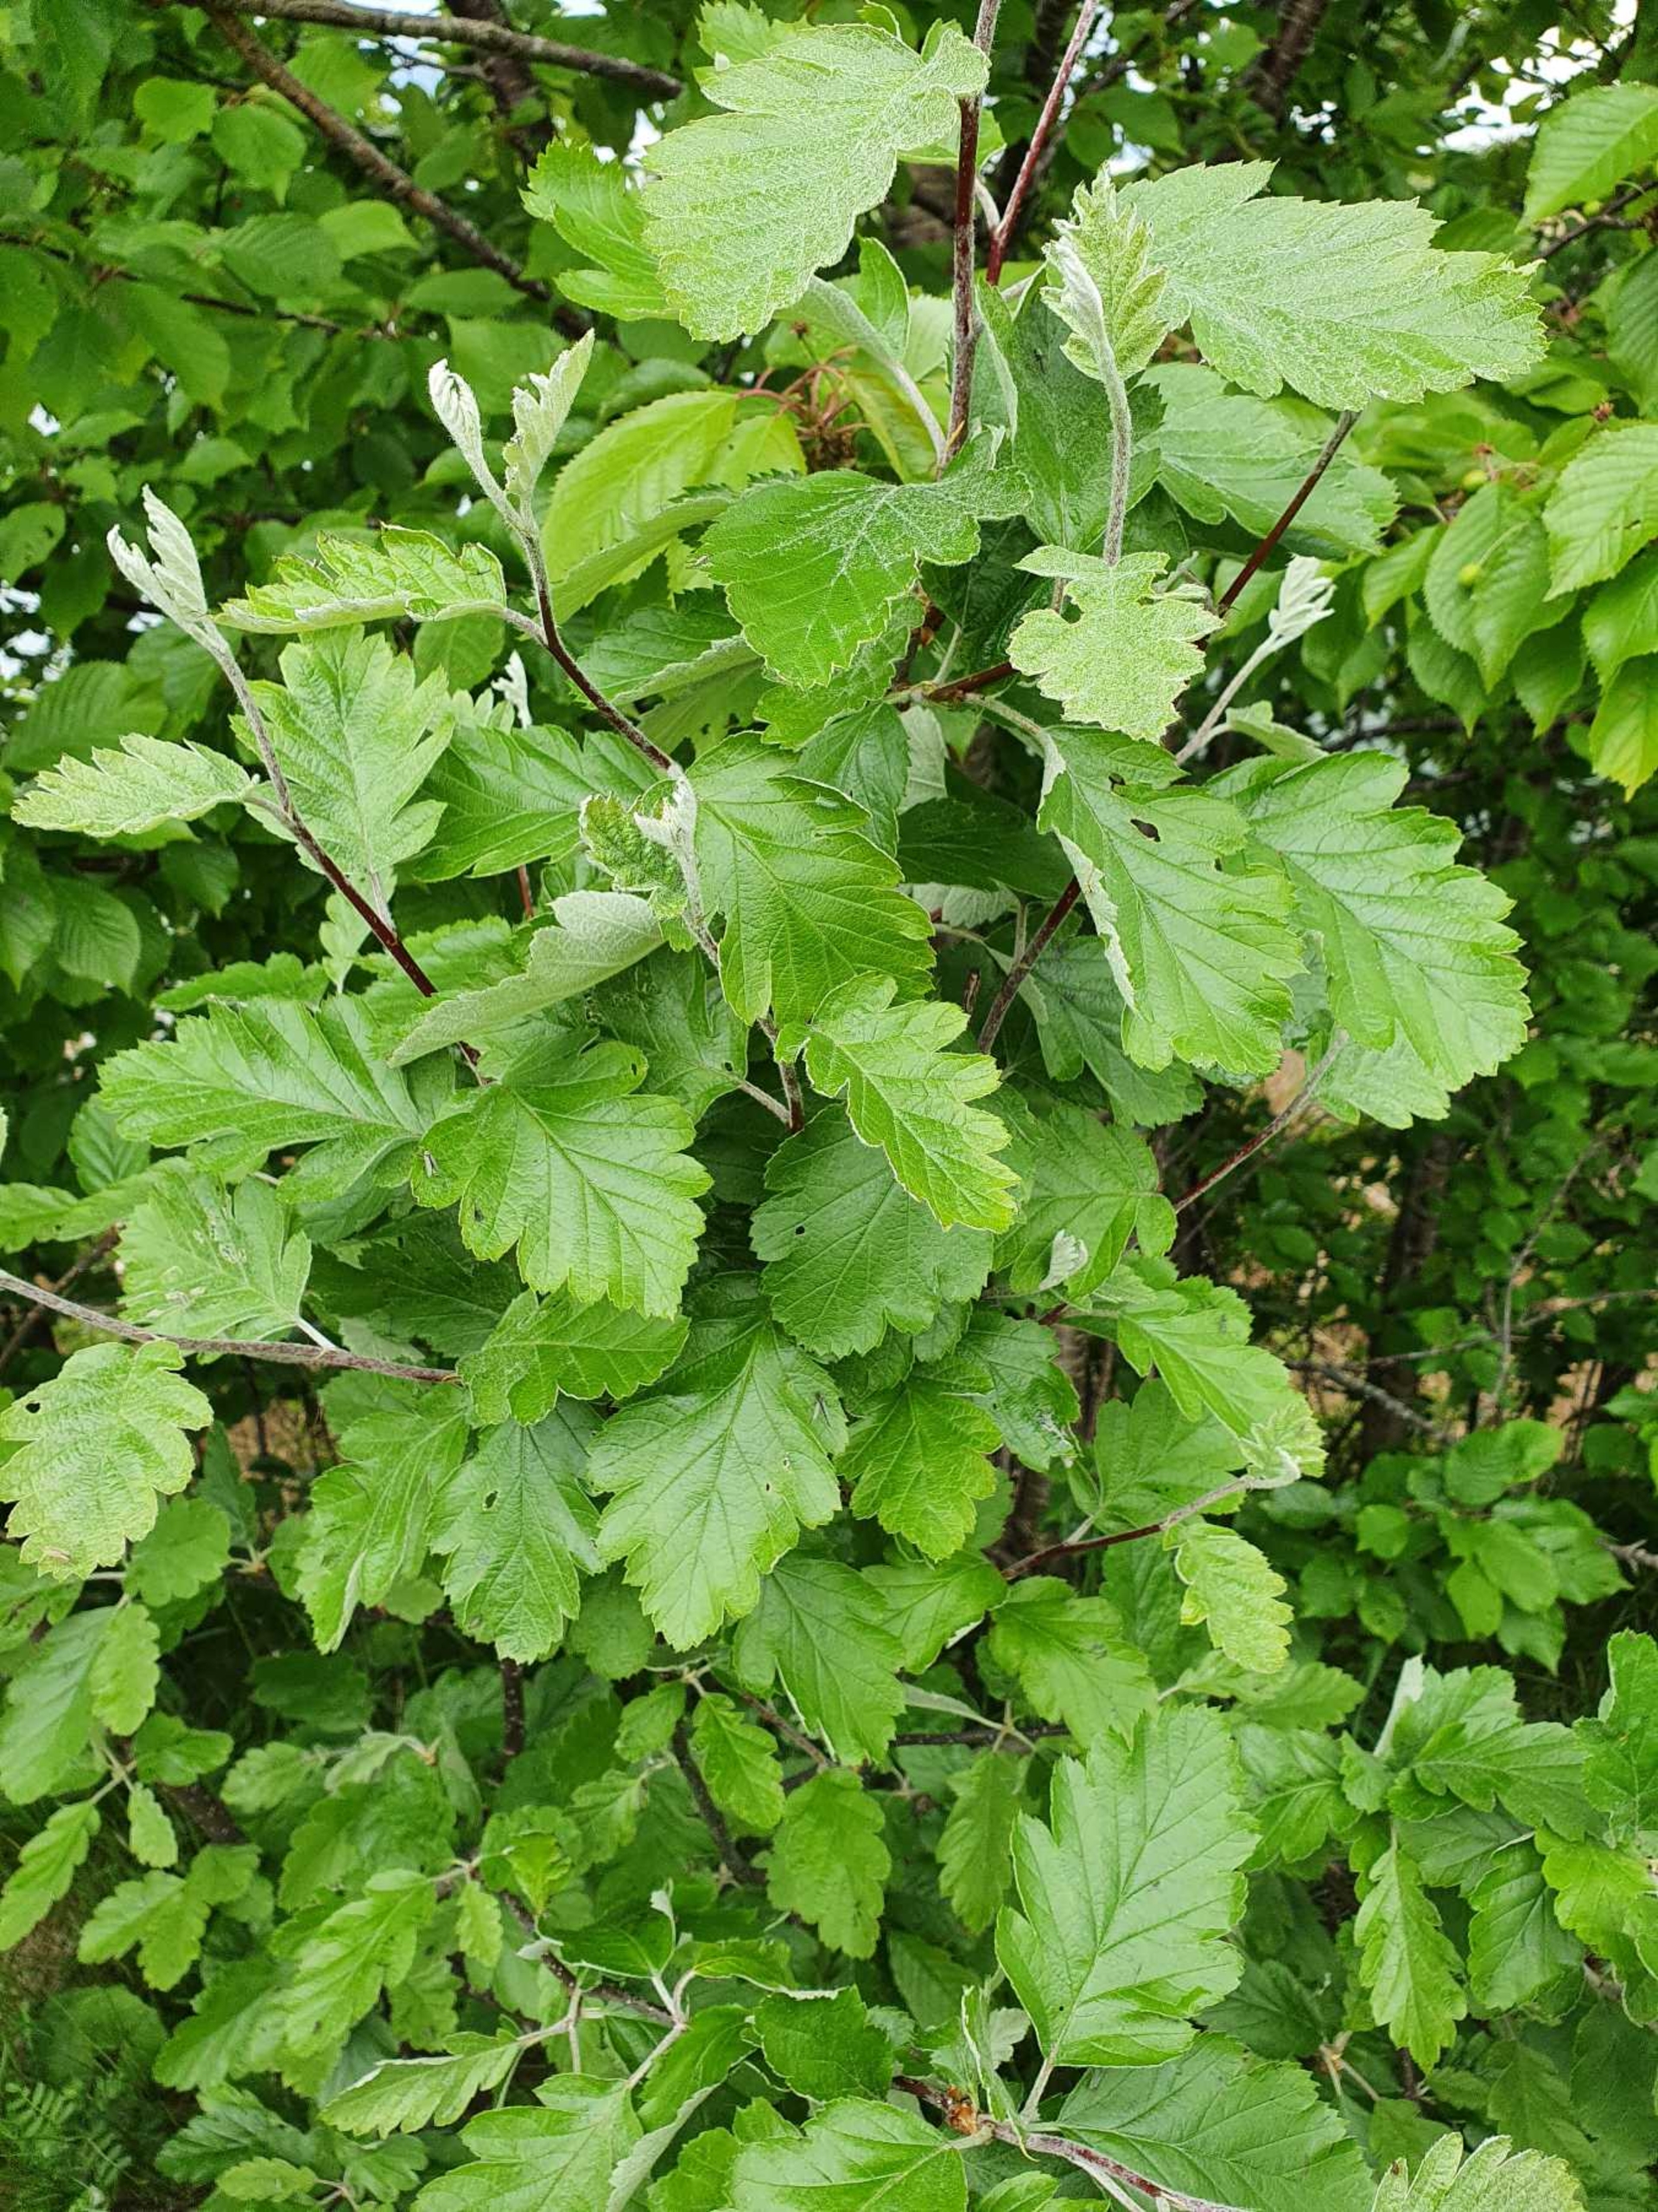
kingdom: Plantae
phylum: Tracheophyta
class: Magnoliopsida
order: Rosales
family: Rosaceae
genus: Scandosorbus
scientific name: Scandosorbus intermedia
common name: Selje-røn
